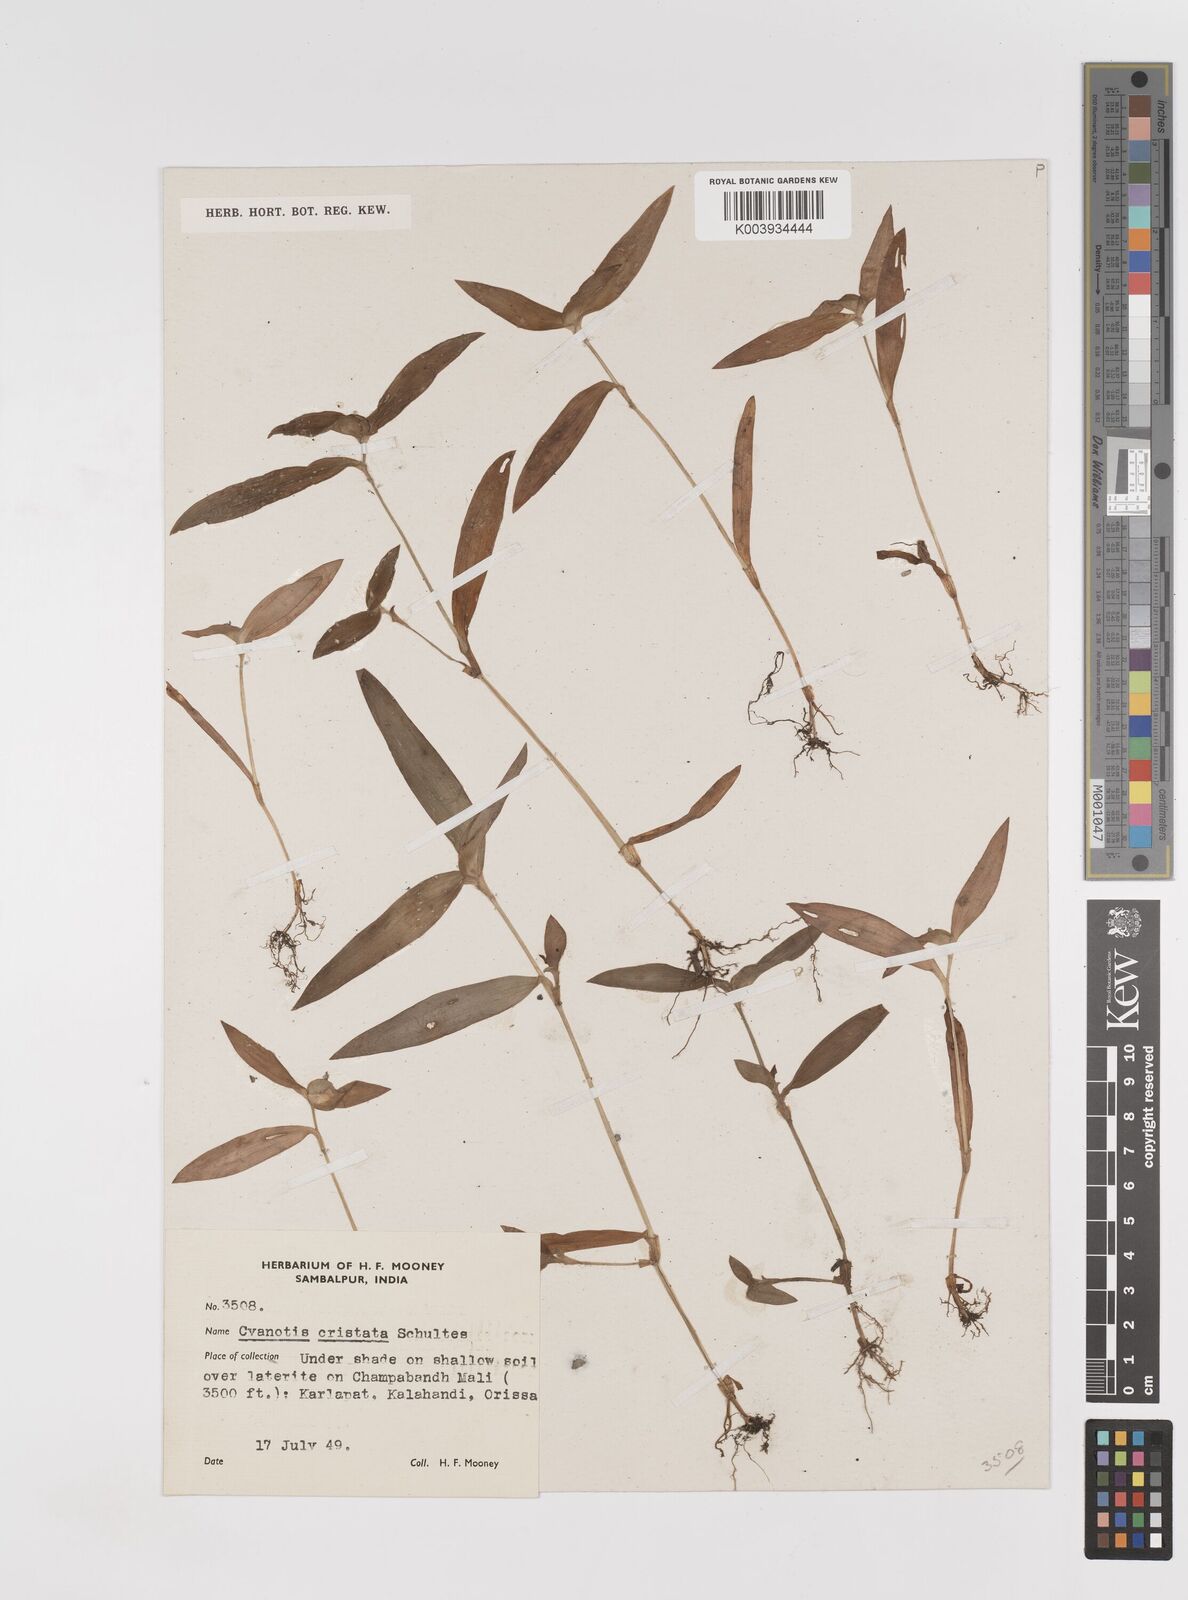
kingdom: Plantae
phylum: Tracheophyta
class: Liliopsida
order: Commelinales
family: Commelinaceae
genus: Cyanotis
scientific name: Cyanotis cristata
